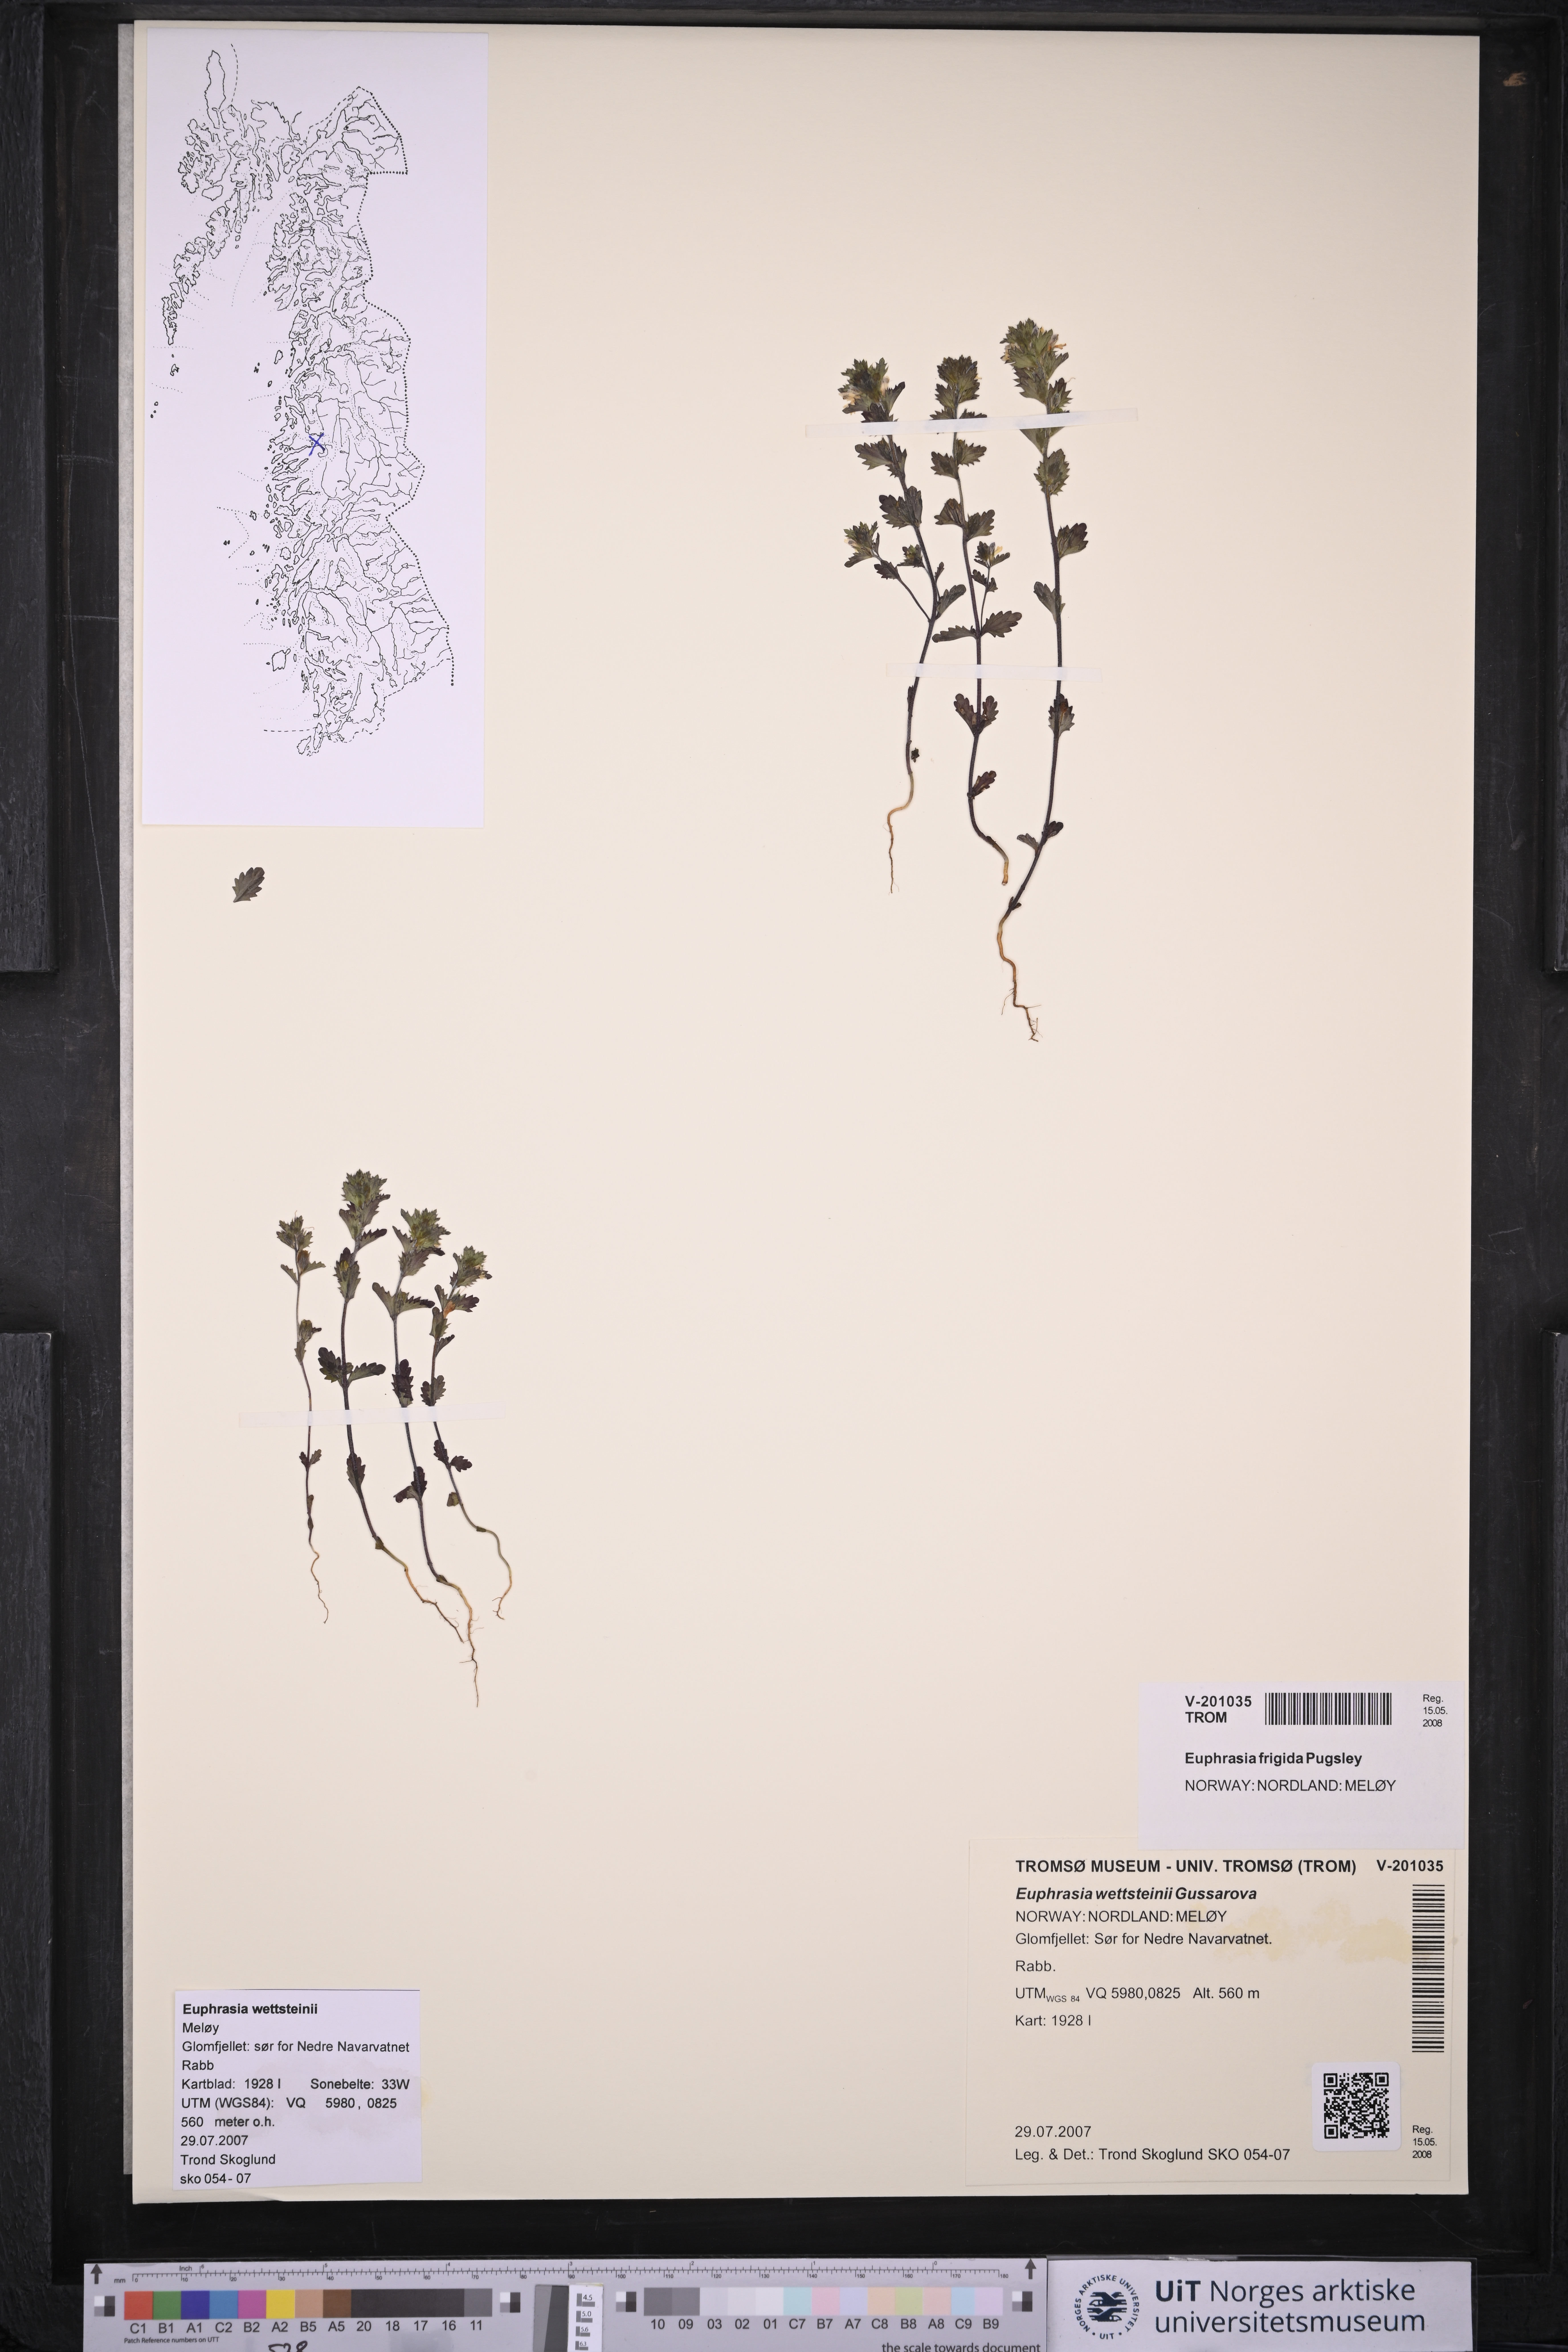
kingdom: Plantae
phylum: Tracheophyta
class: Magnoliopsida
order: Lamiales
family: Orobanchaceae
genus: Euphrasia
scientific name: Euphrasia wettsteinii
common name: Wettstein's eyebright
